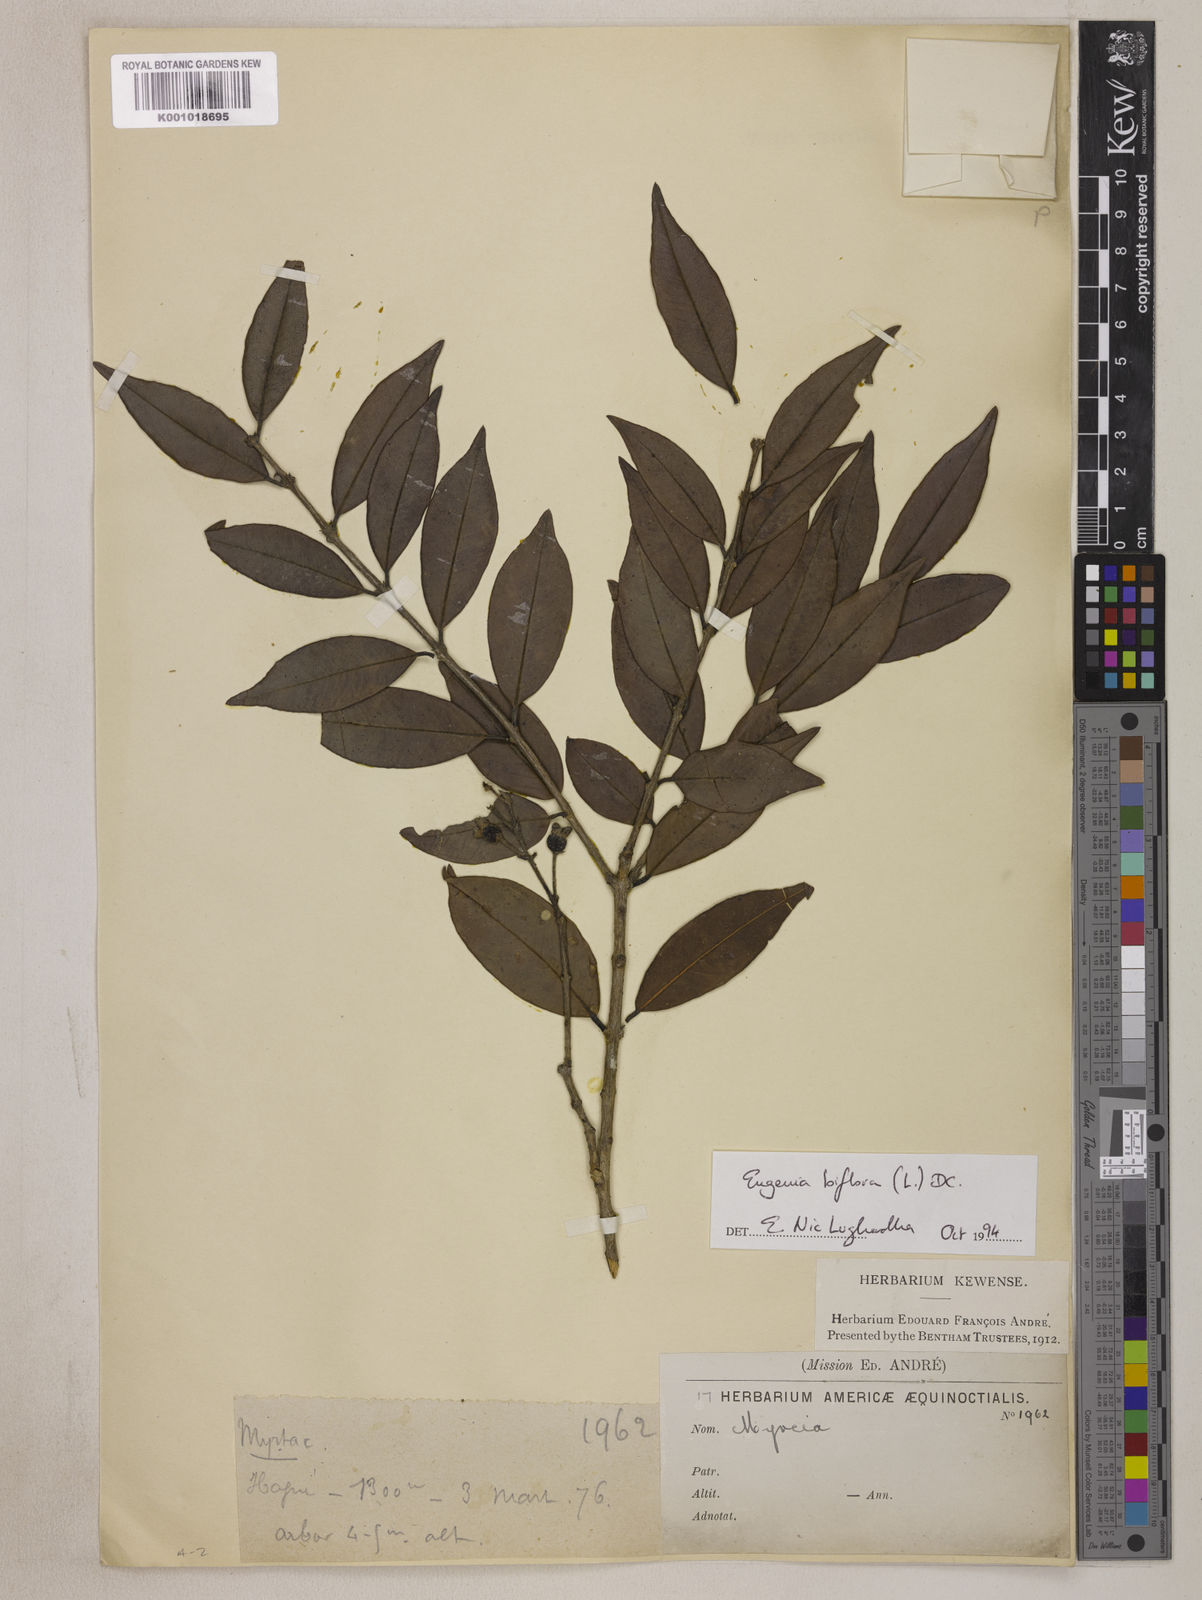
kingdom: Plantae
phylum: Tracheophyta
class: Magnoliopsida
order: Myrtales
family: Myrtaceae
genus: Eugenia
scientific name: Eugenia biflora
